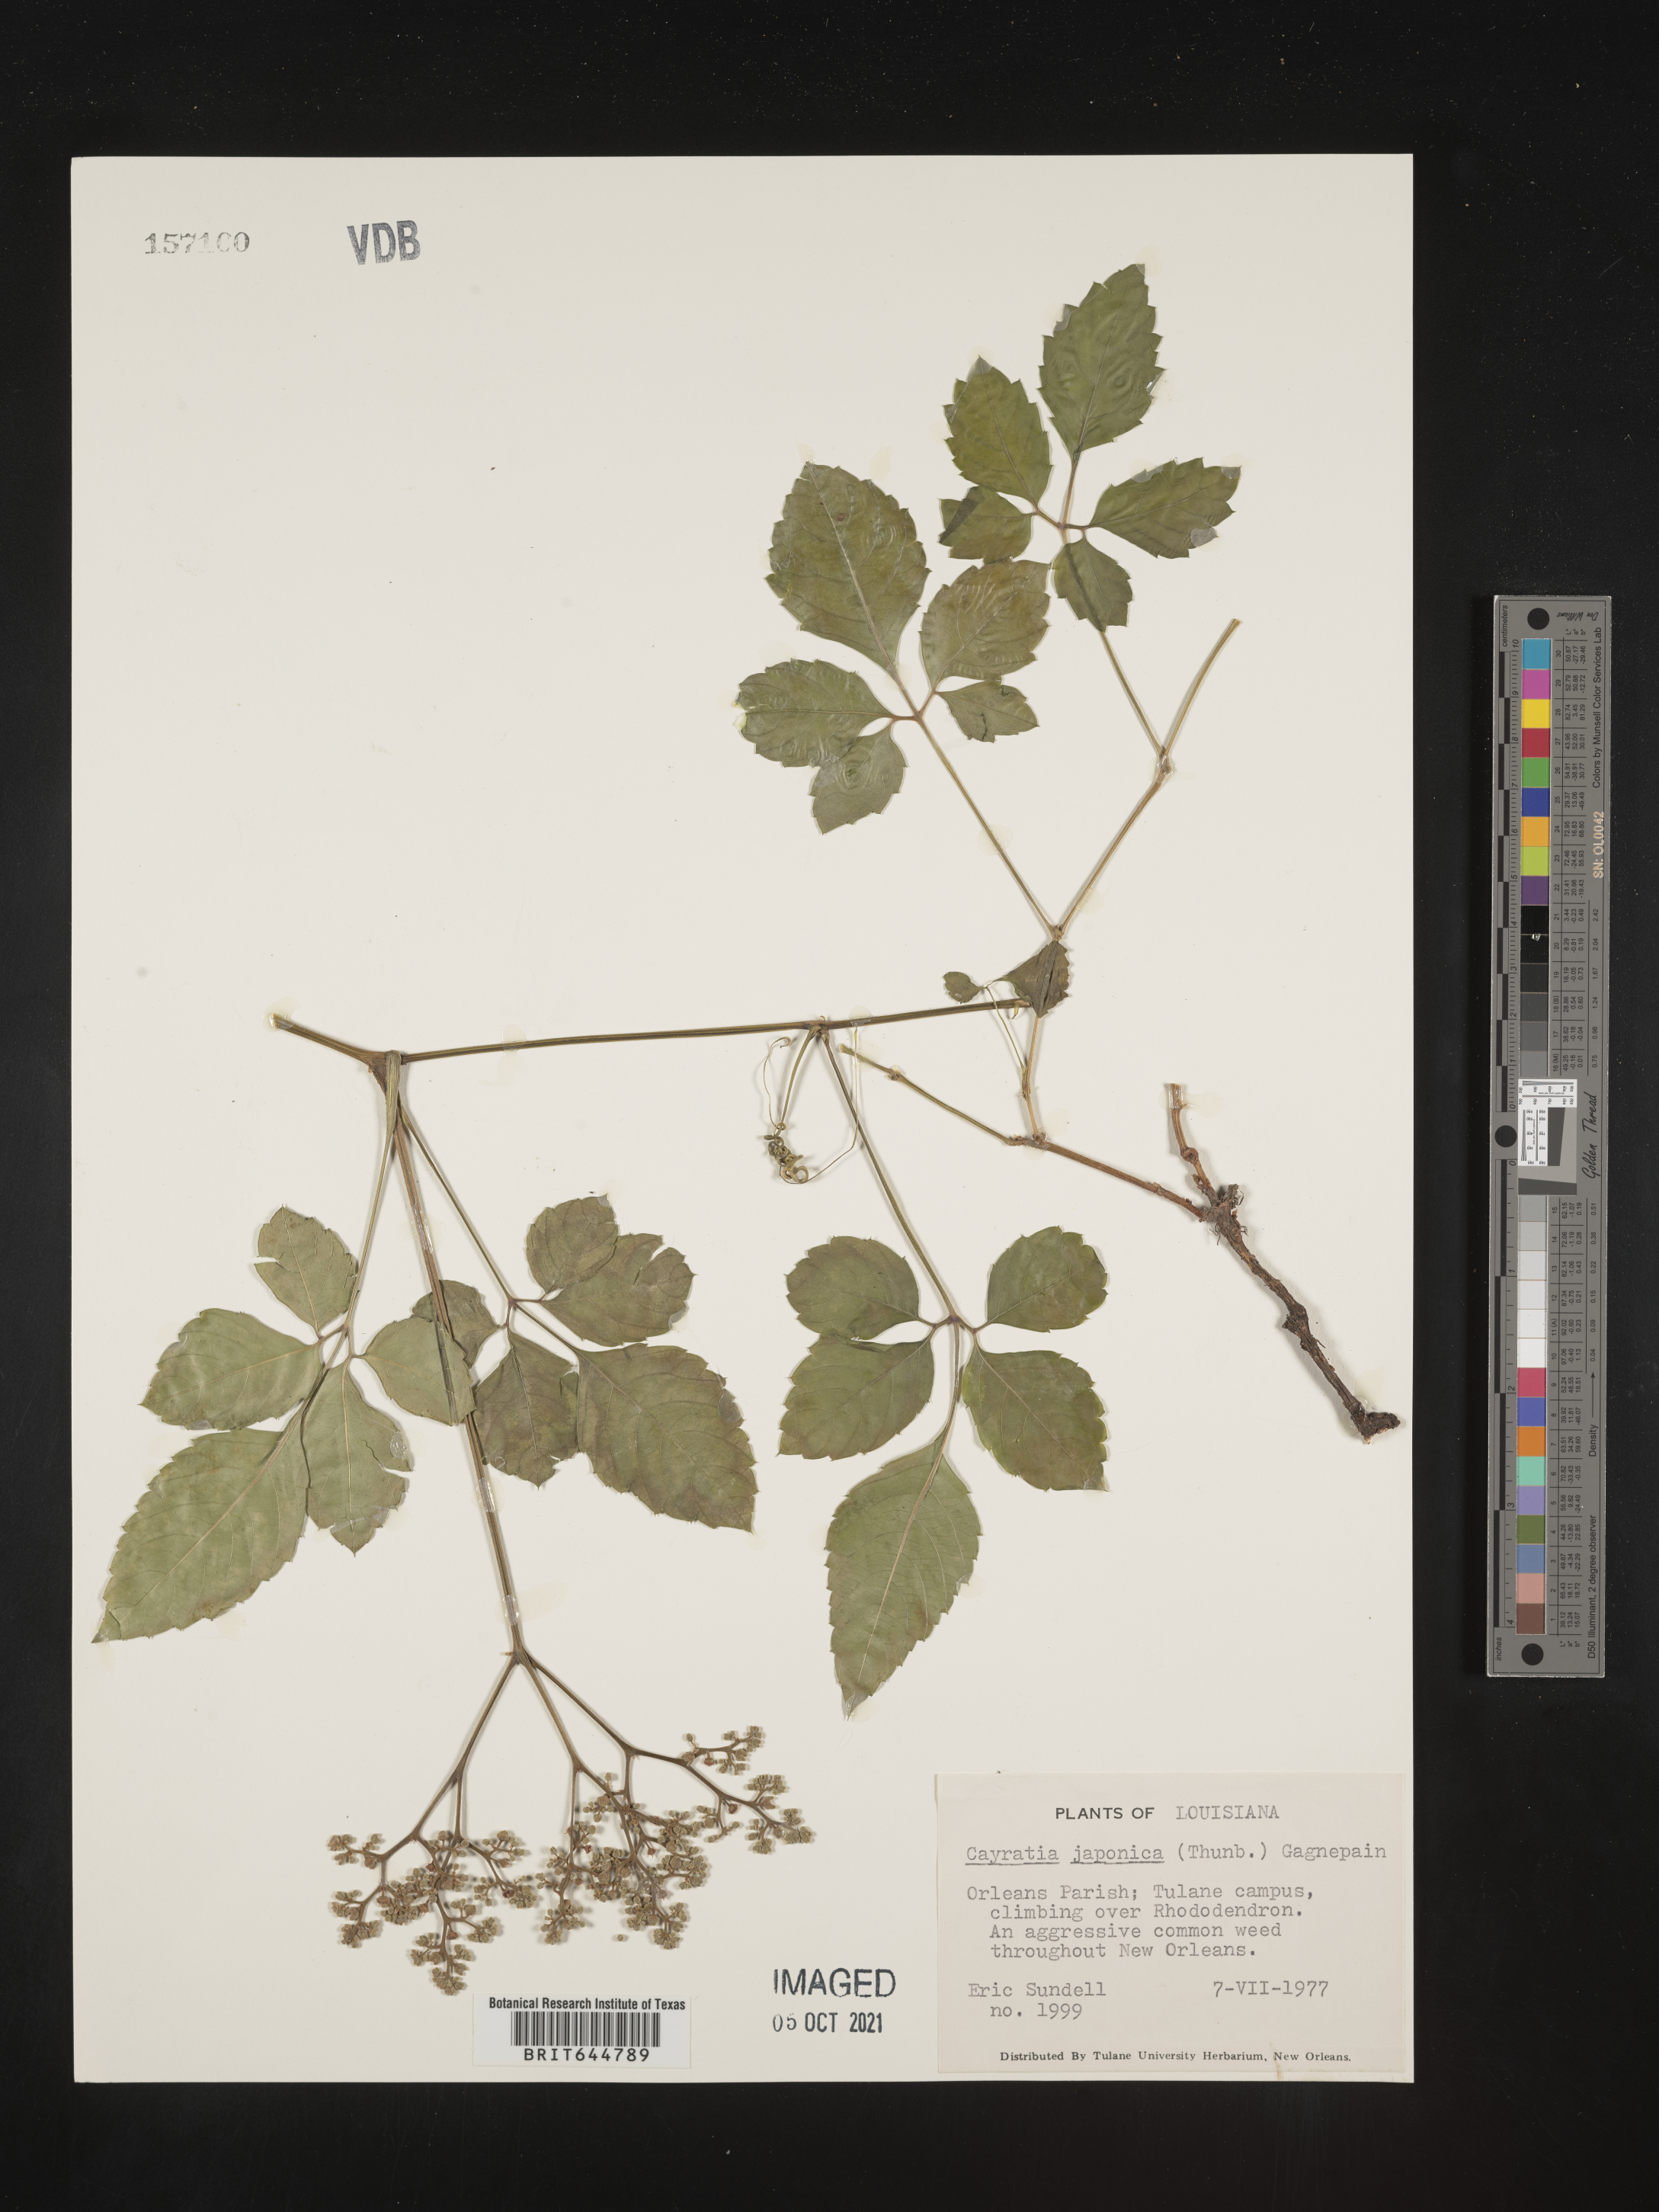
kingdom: Plantae
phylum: Tracheophyta
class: Magnoliopsida
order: Vitales
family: Vitaceae
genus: Causonis
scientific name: Causonis japonica
